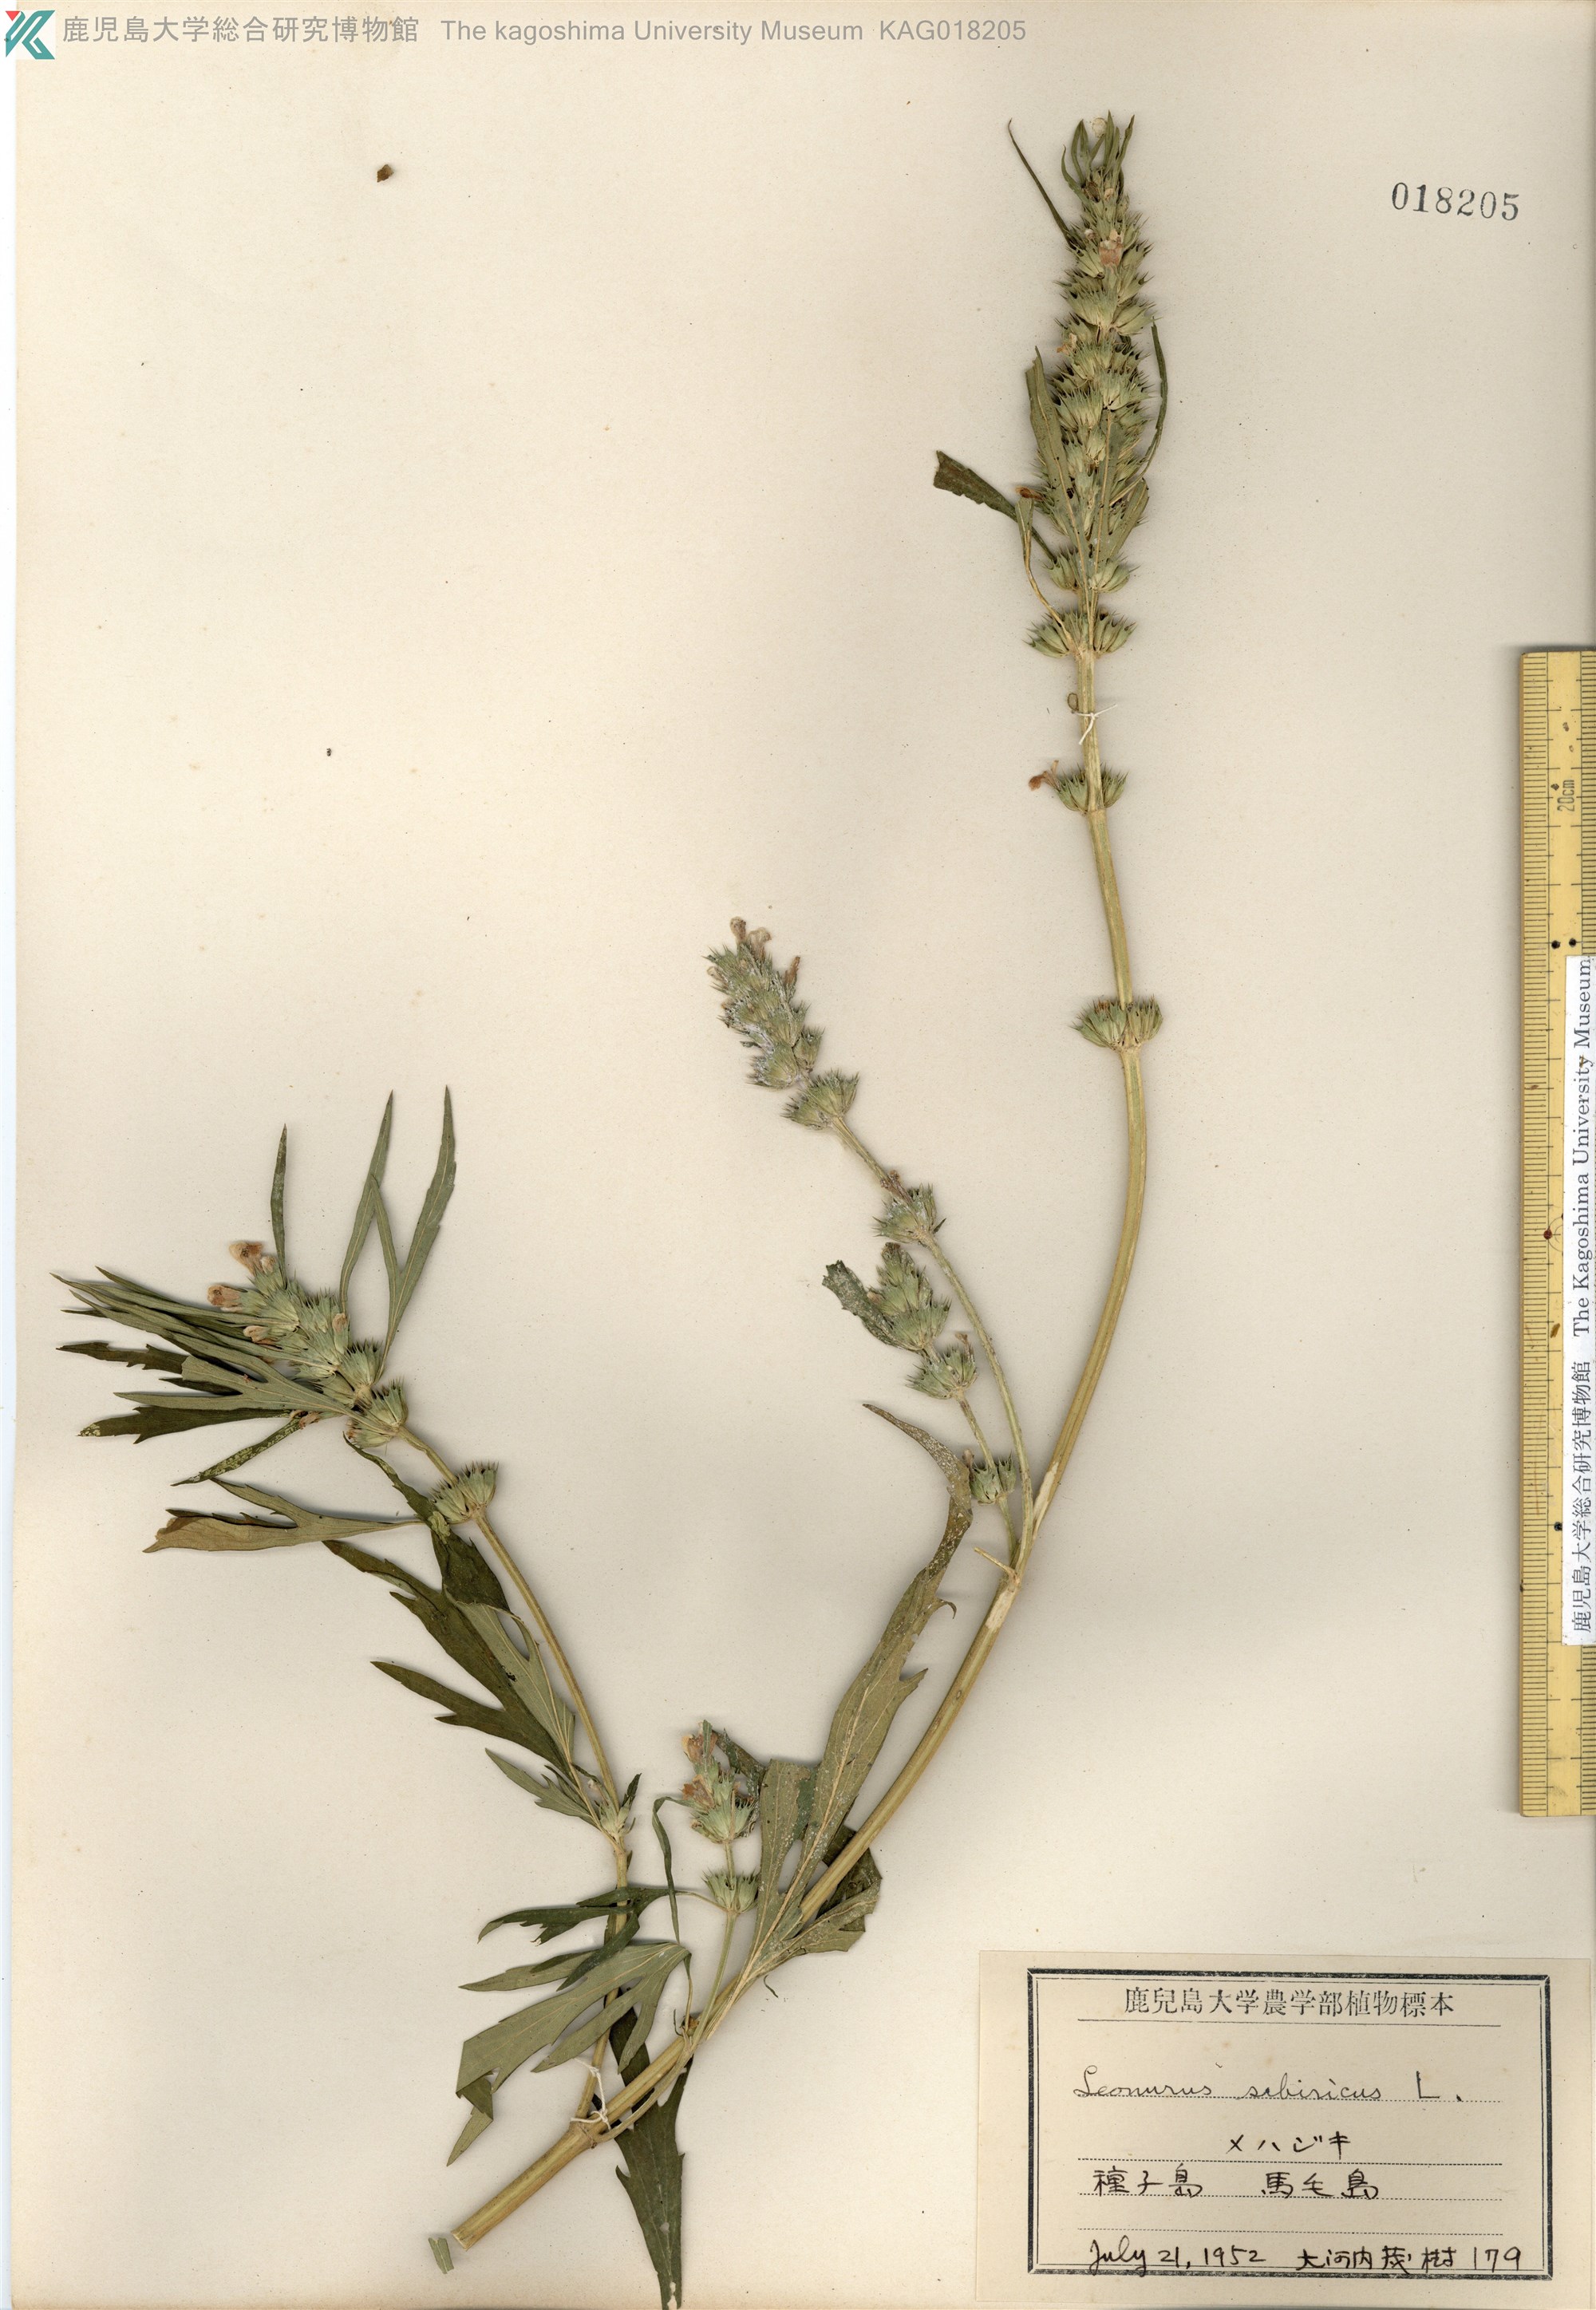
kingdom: Plantae
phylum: Tracheophyta
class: Magnoliopsida
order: Lamiales
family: Lamiaceae
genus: Leonurus
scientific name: Leonurus japonicus
